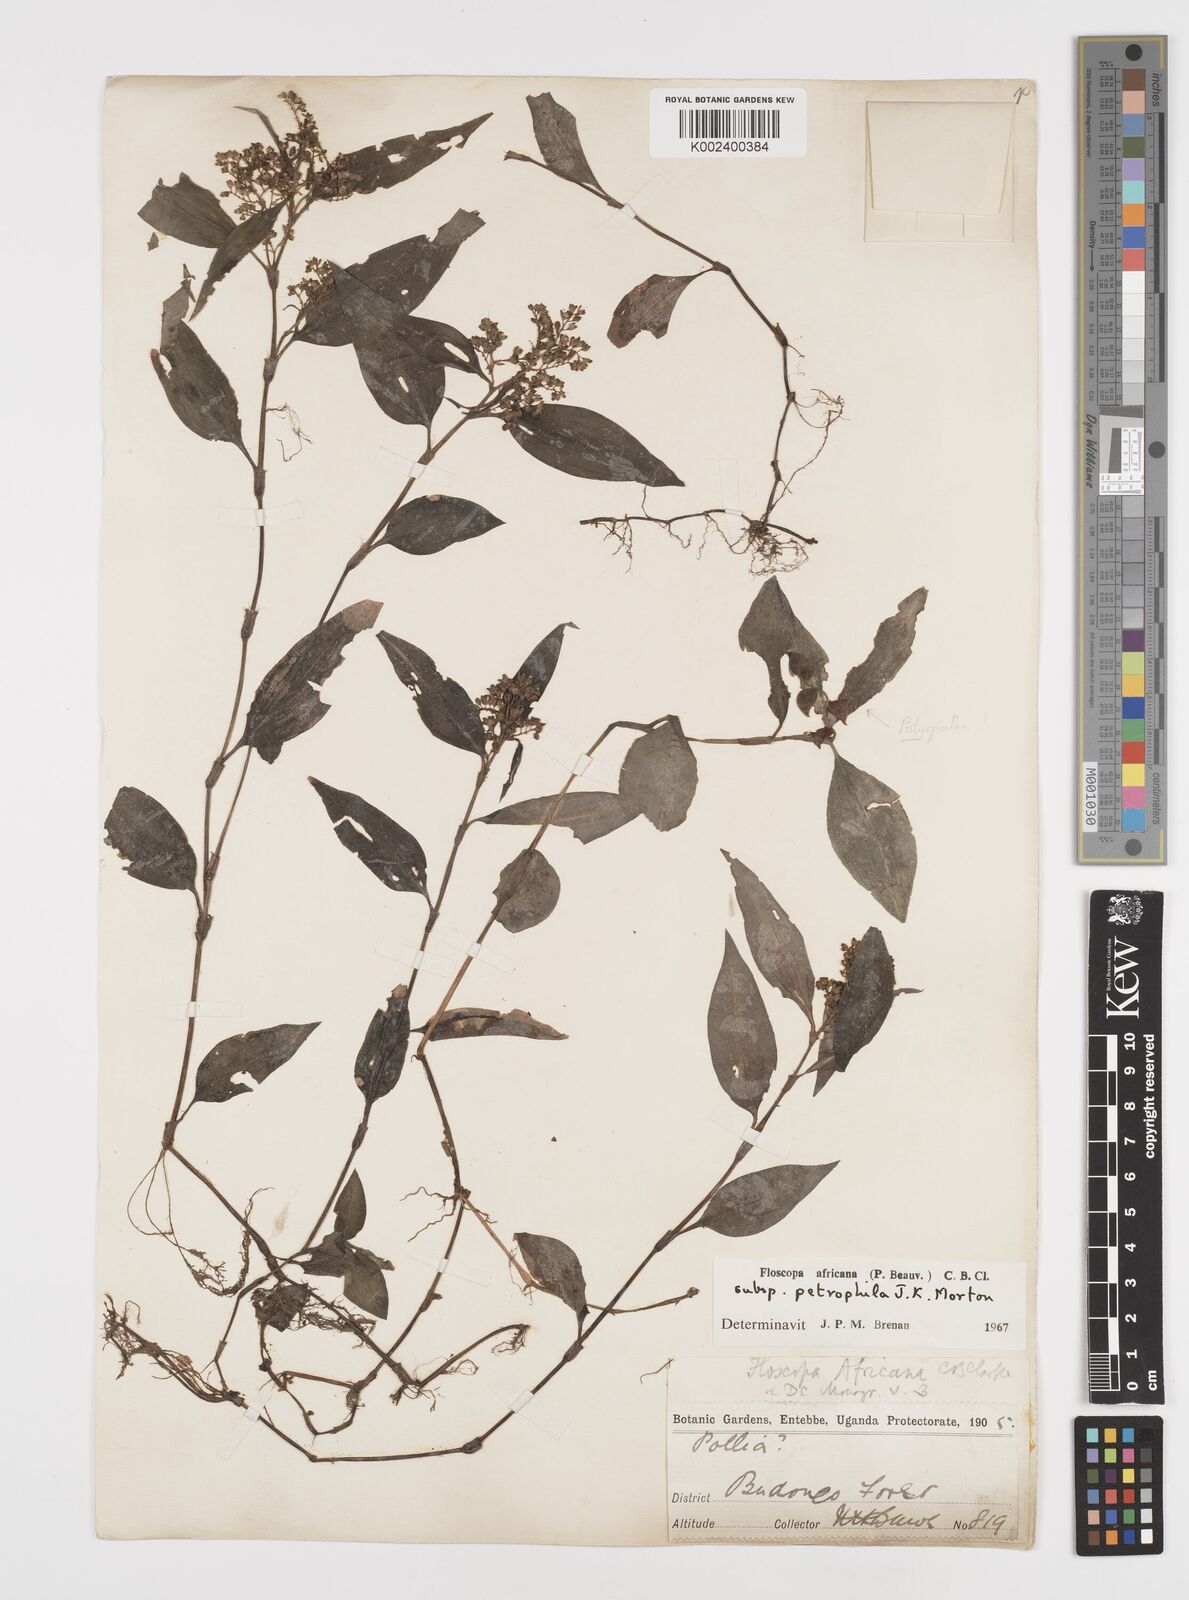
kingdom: Plantae
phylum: Tracheophyta
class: Liliopsida
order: Commelinales
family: Commelinaceae
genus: Floscopa
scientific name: Floscopa africana
